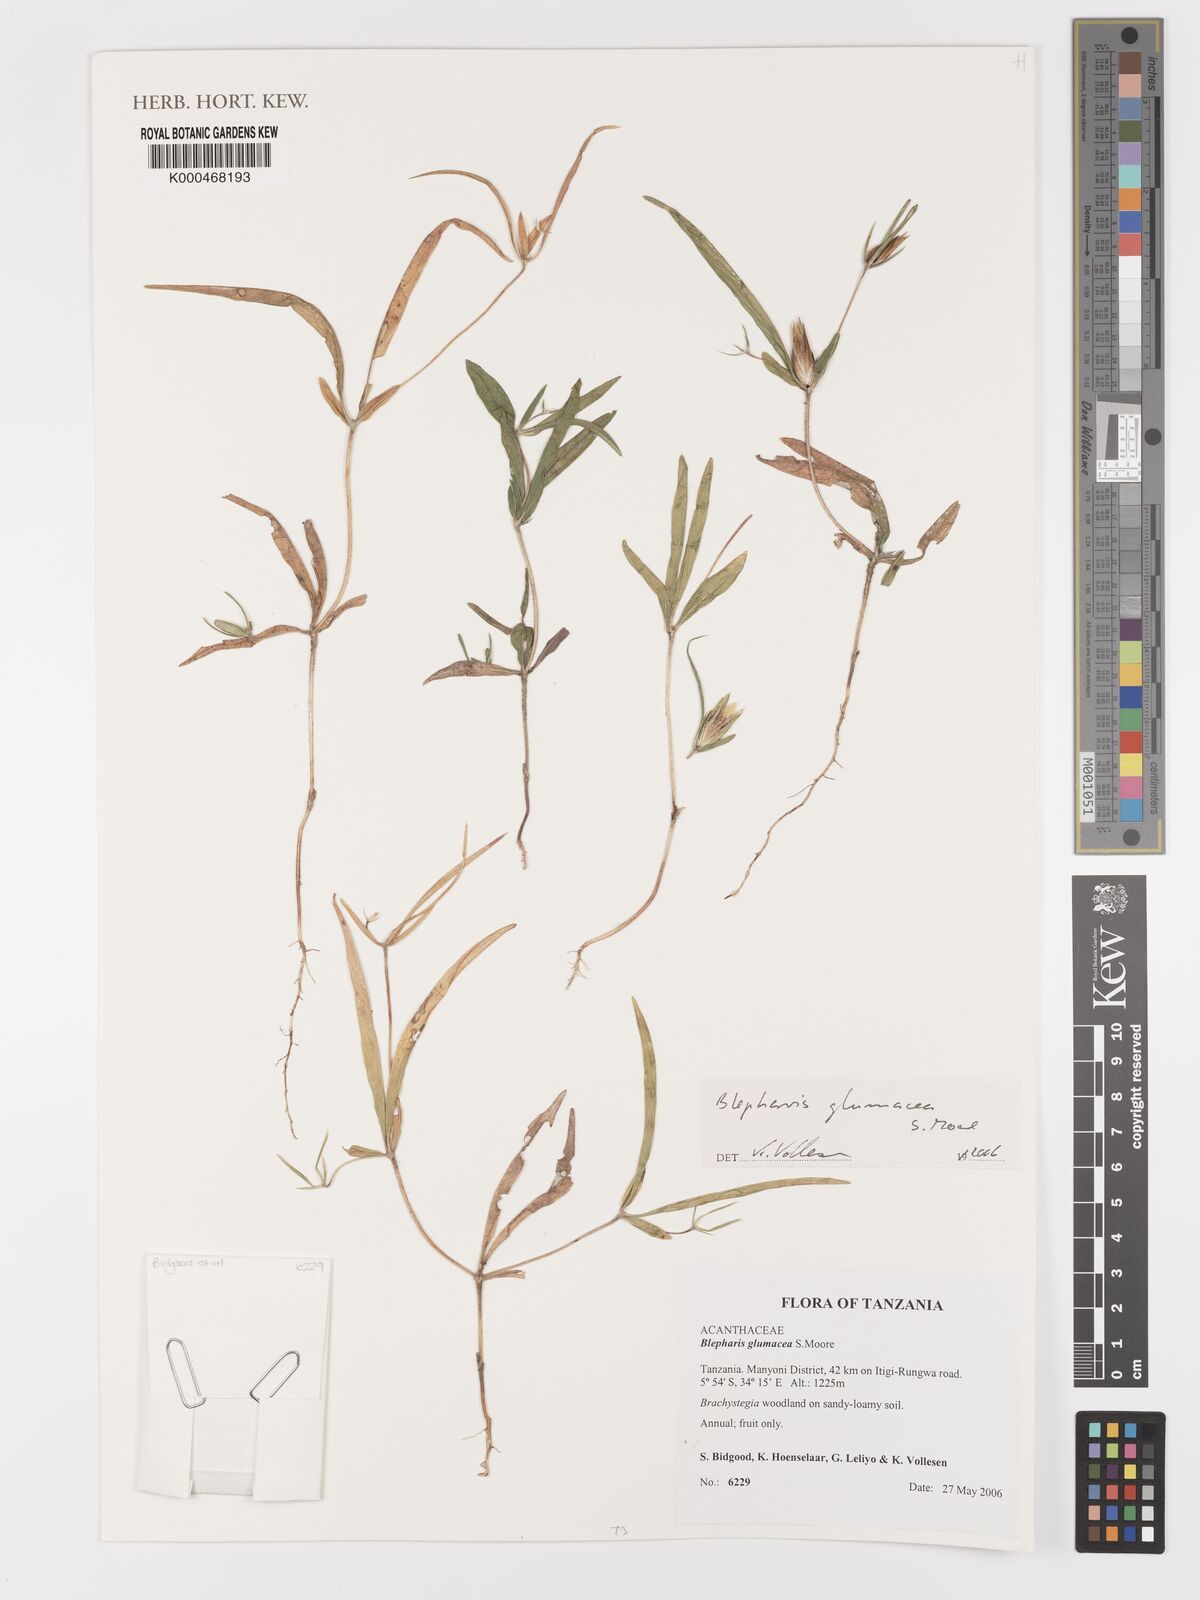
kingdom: Plantae
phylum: Tracheophyta
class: Magnoliopsida
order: Lamiales
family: Acanthaceae
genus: Blepharis
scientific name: Blepharis glumacea
